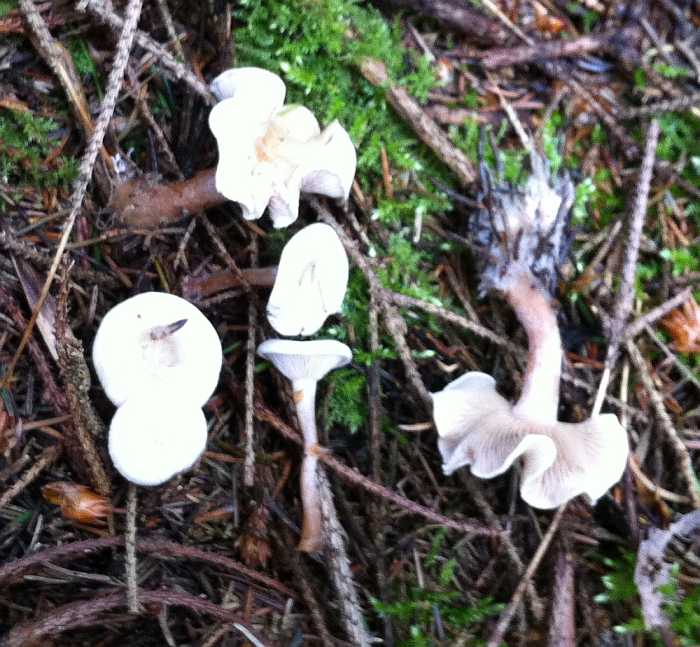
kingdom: Fungi
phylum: Basidiomycota
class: Agaricomycetes
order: Agaricales
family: Tricholomataceae
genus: Ripartites
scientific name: Ripartites tricholoma
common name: almindelig skæghat
